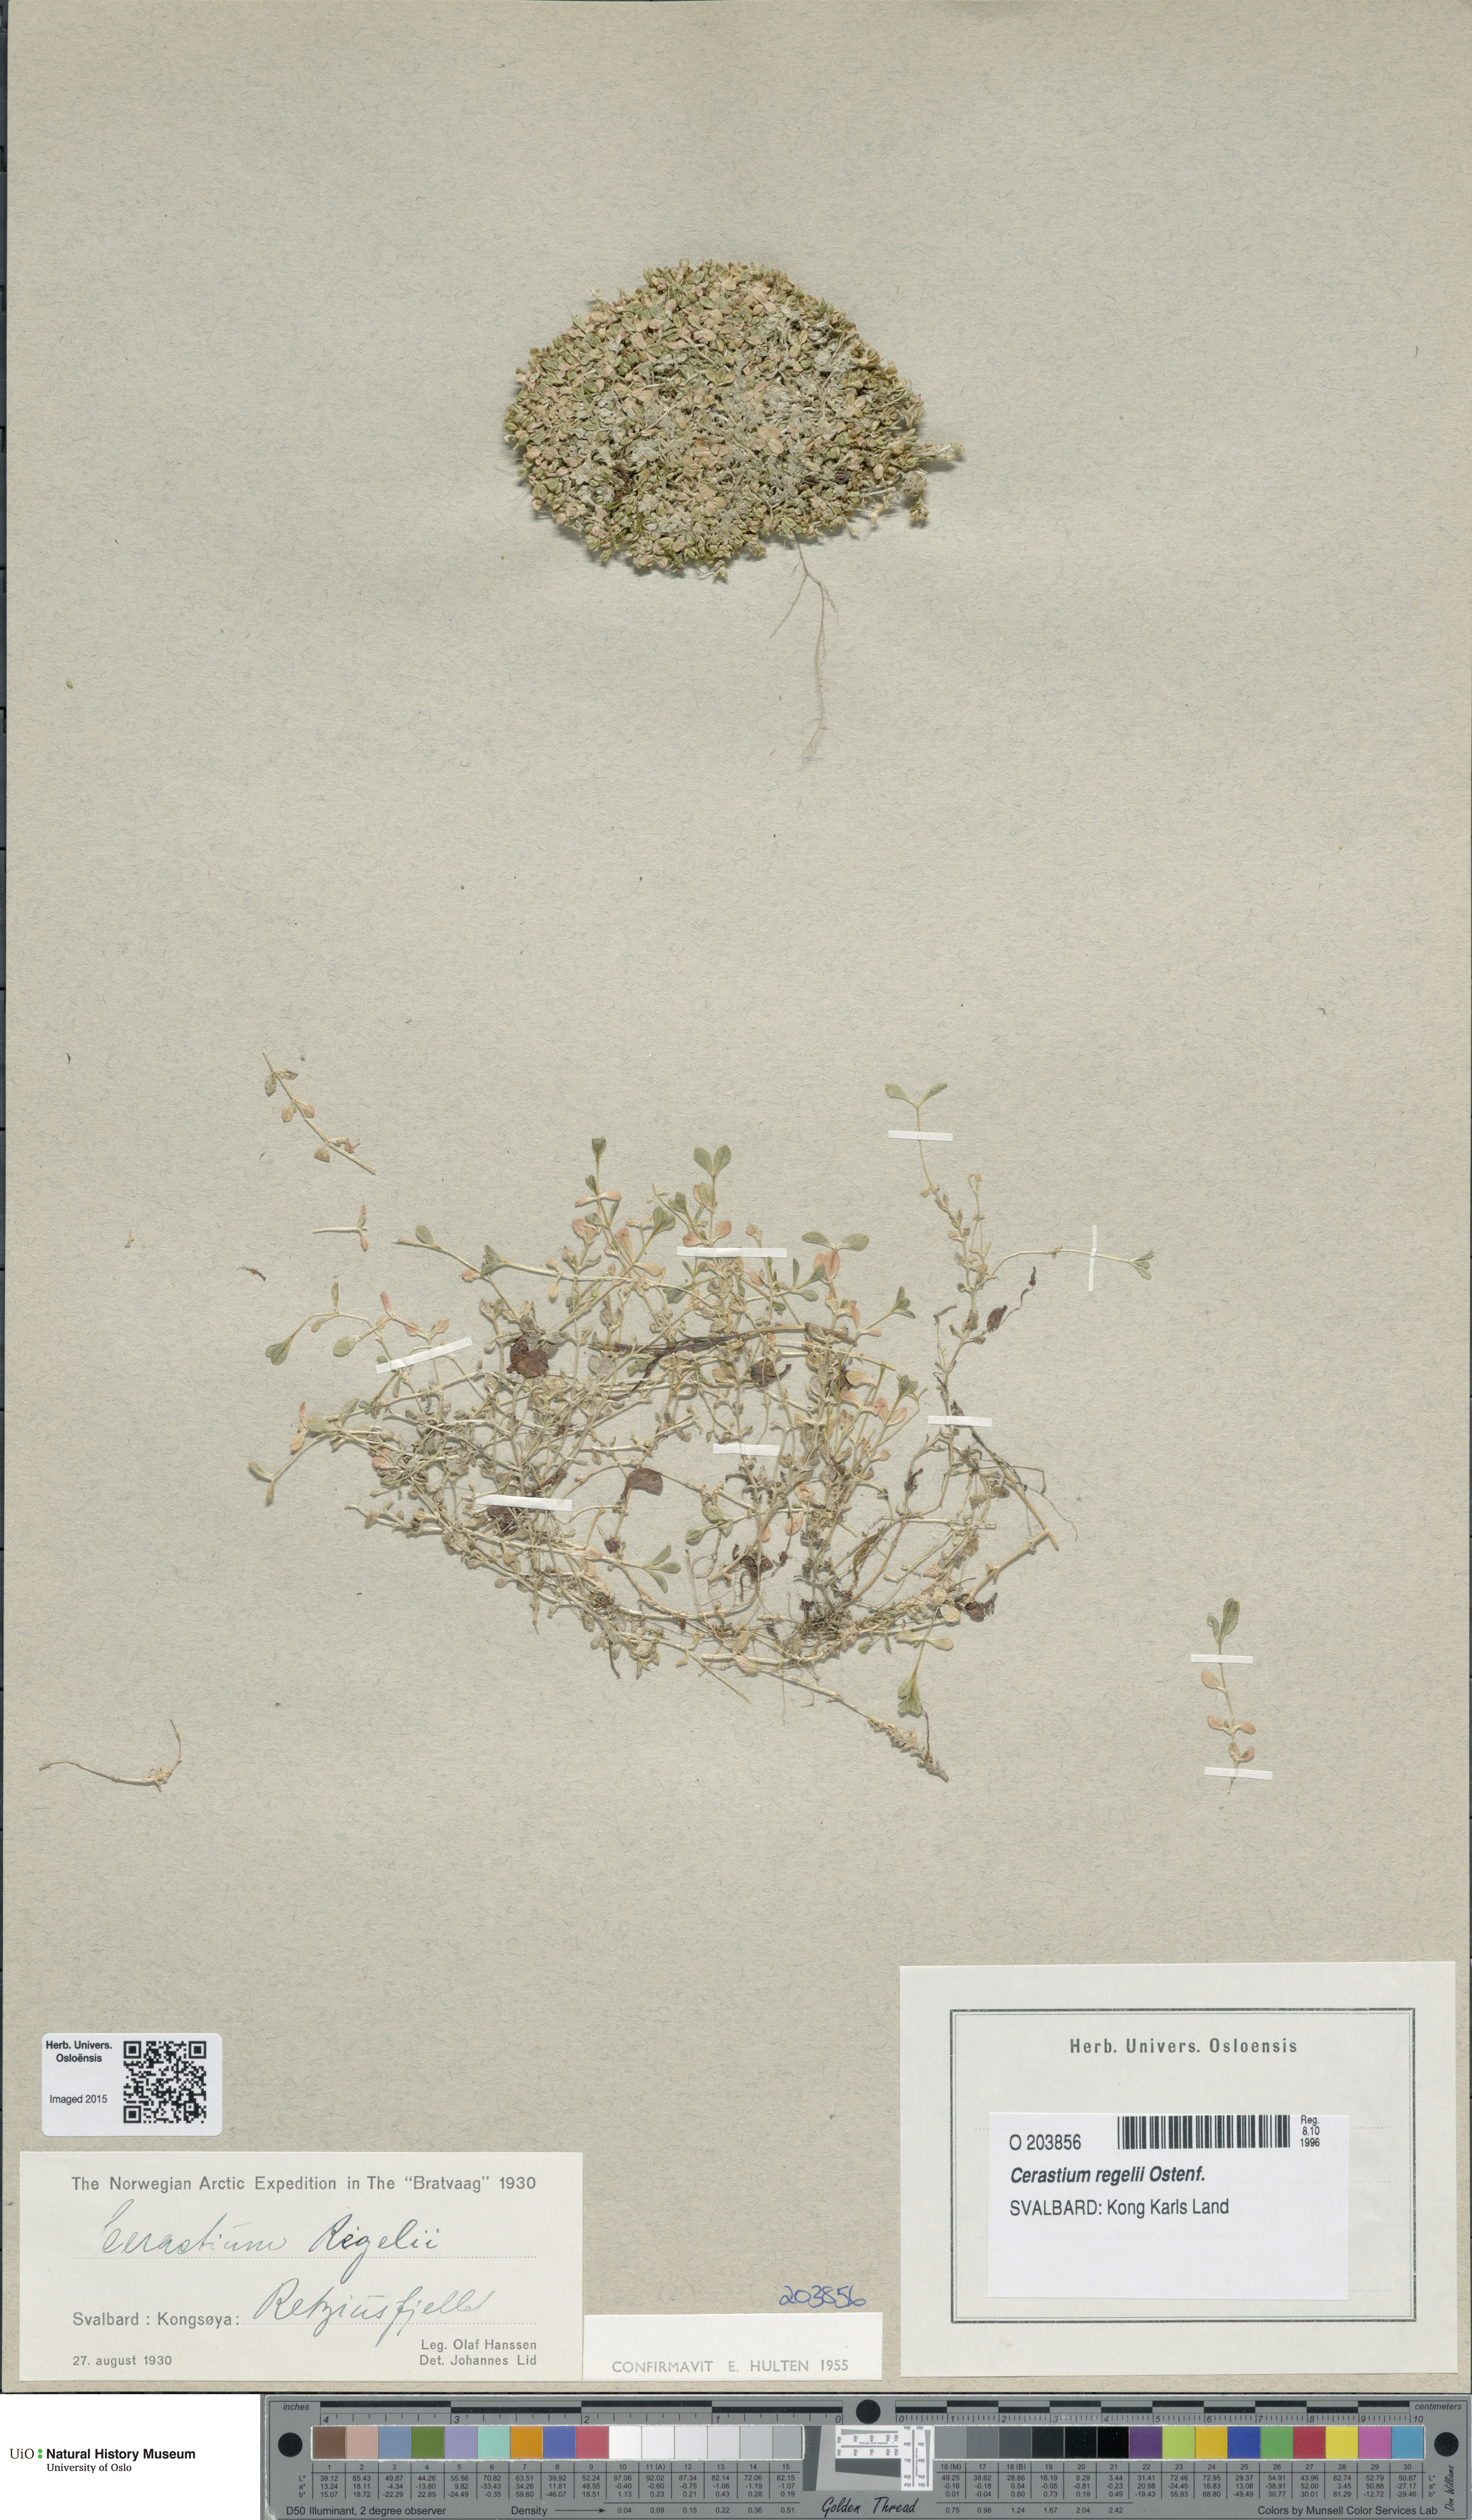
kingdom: Plantae
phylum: Tracheophyta
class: Magnoliopsida
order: Caryophyllales
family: Caryophyllaceae
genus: Cerastium
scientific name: Cerastium regelii
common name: Regel's chickweed
